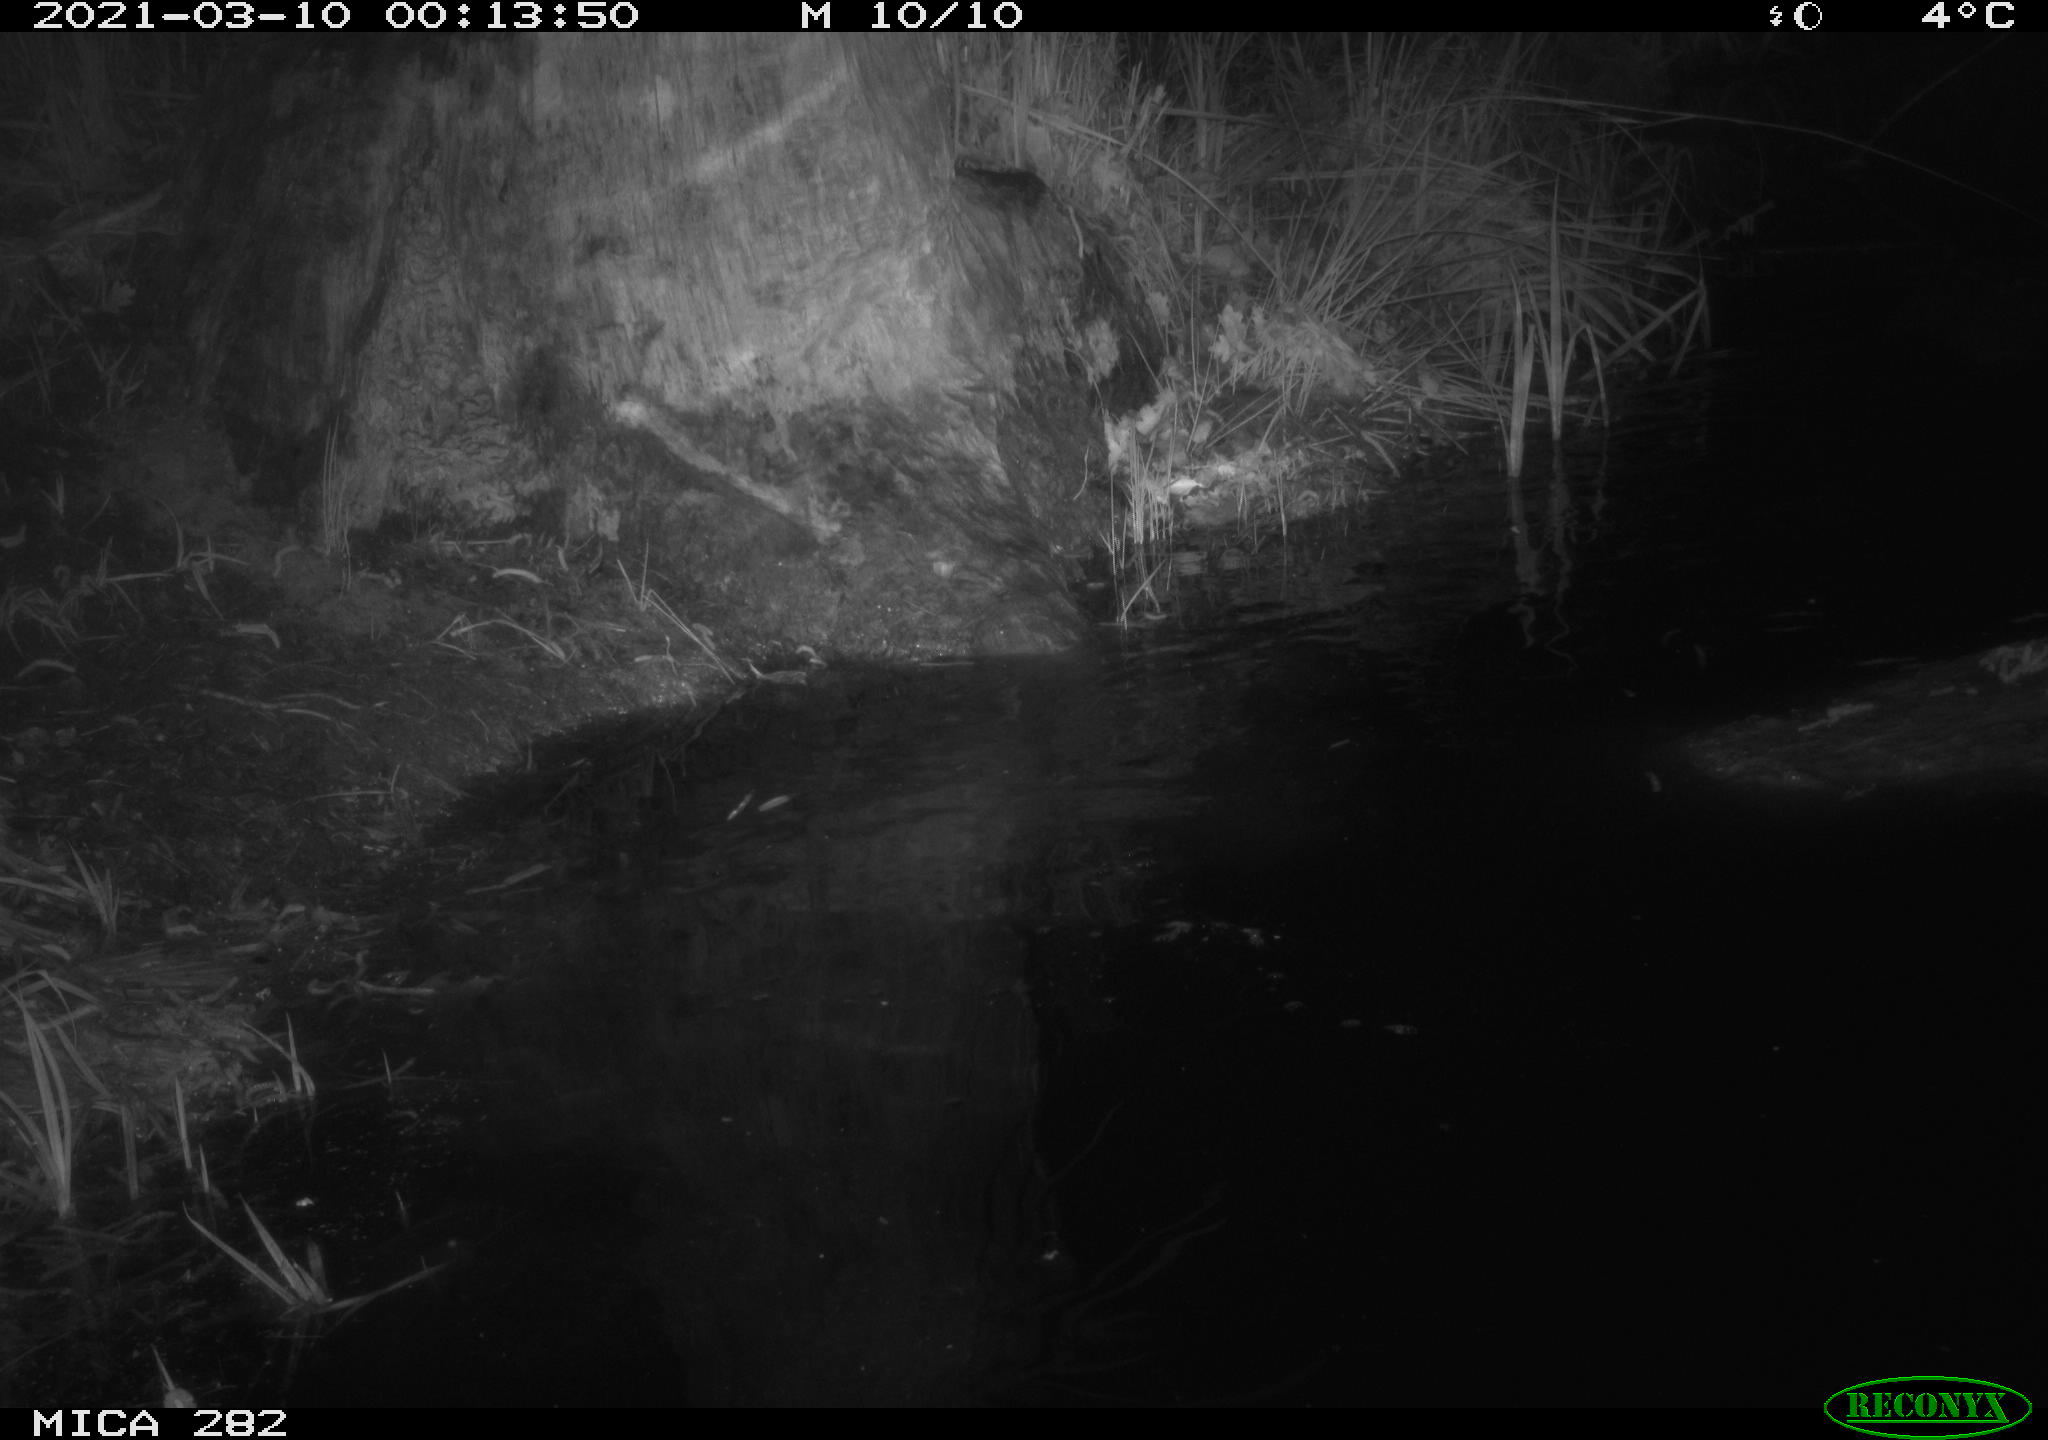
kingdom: Animalia
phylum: Chordata
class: Mammalia
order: Rodentia
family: Castoridae
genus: Castor
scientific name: Castor fiber
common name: Eurasian beaver
